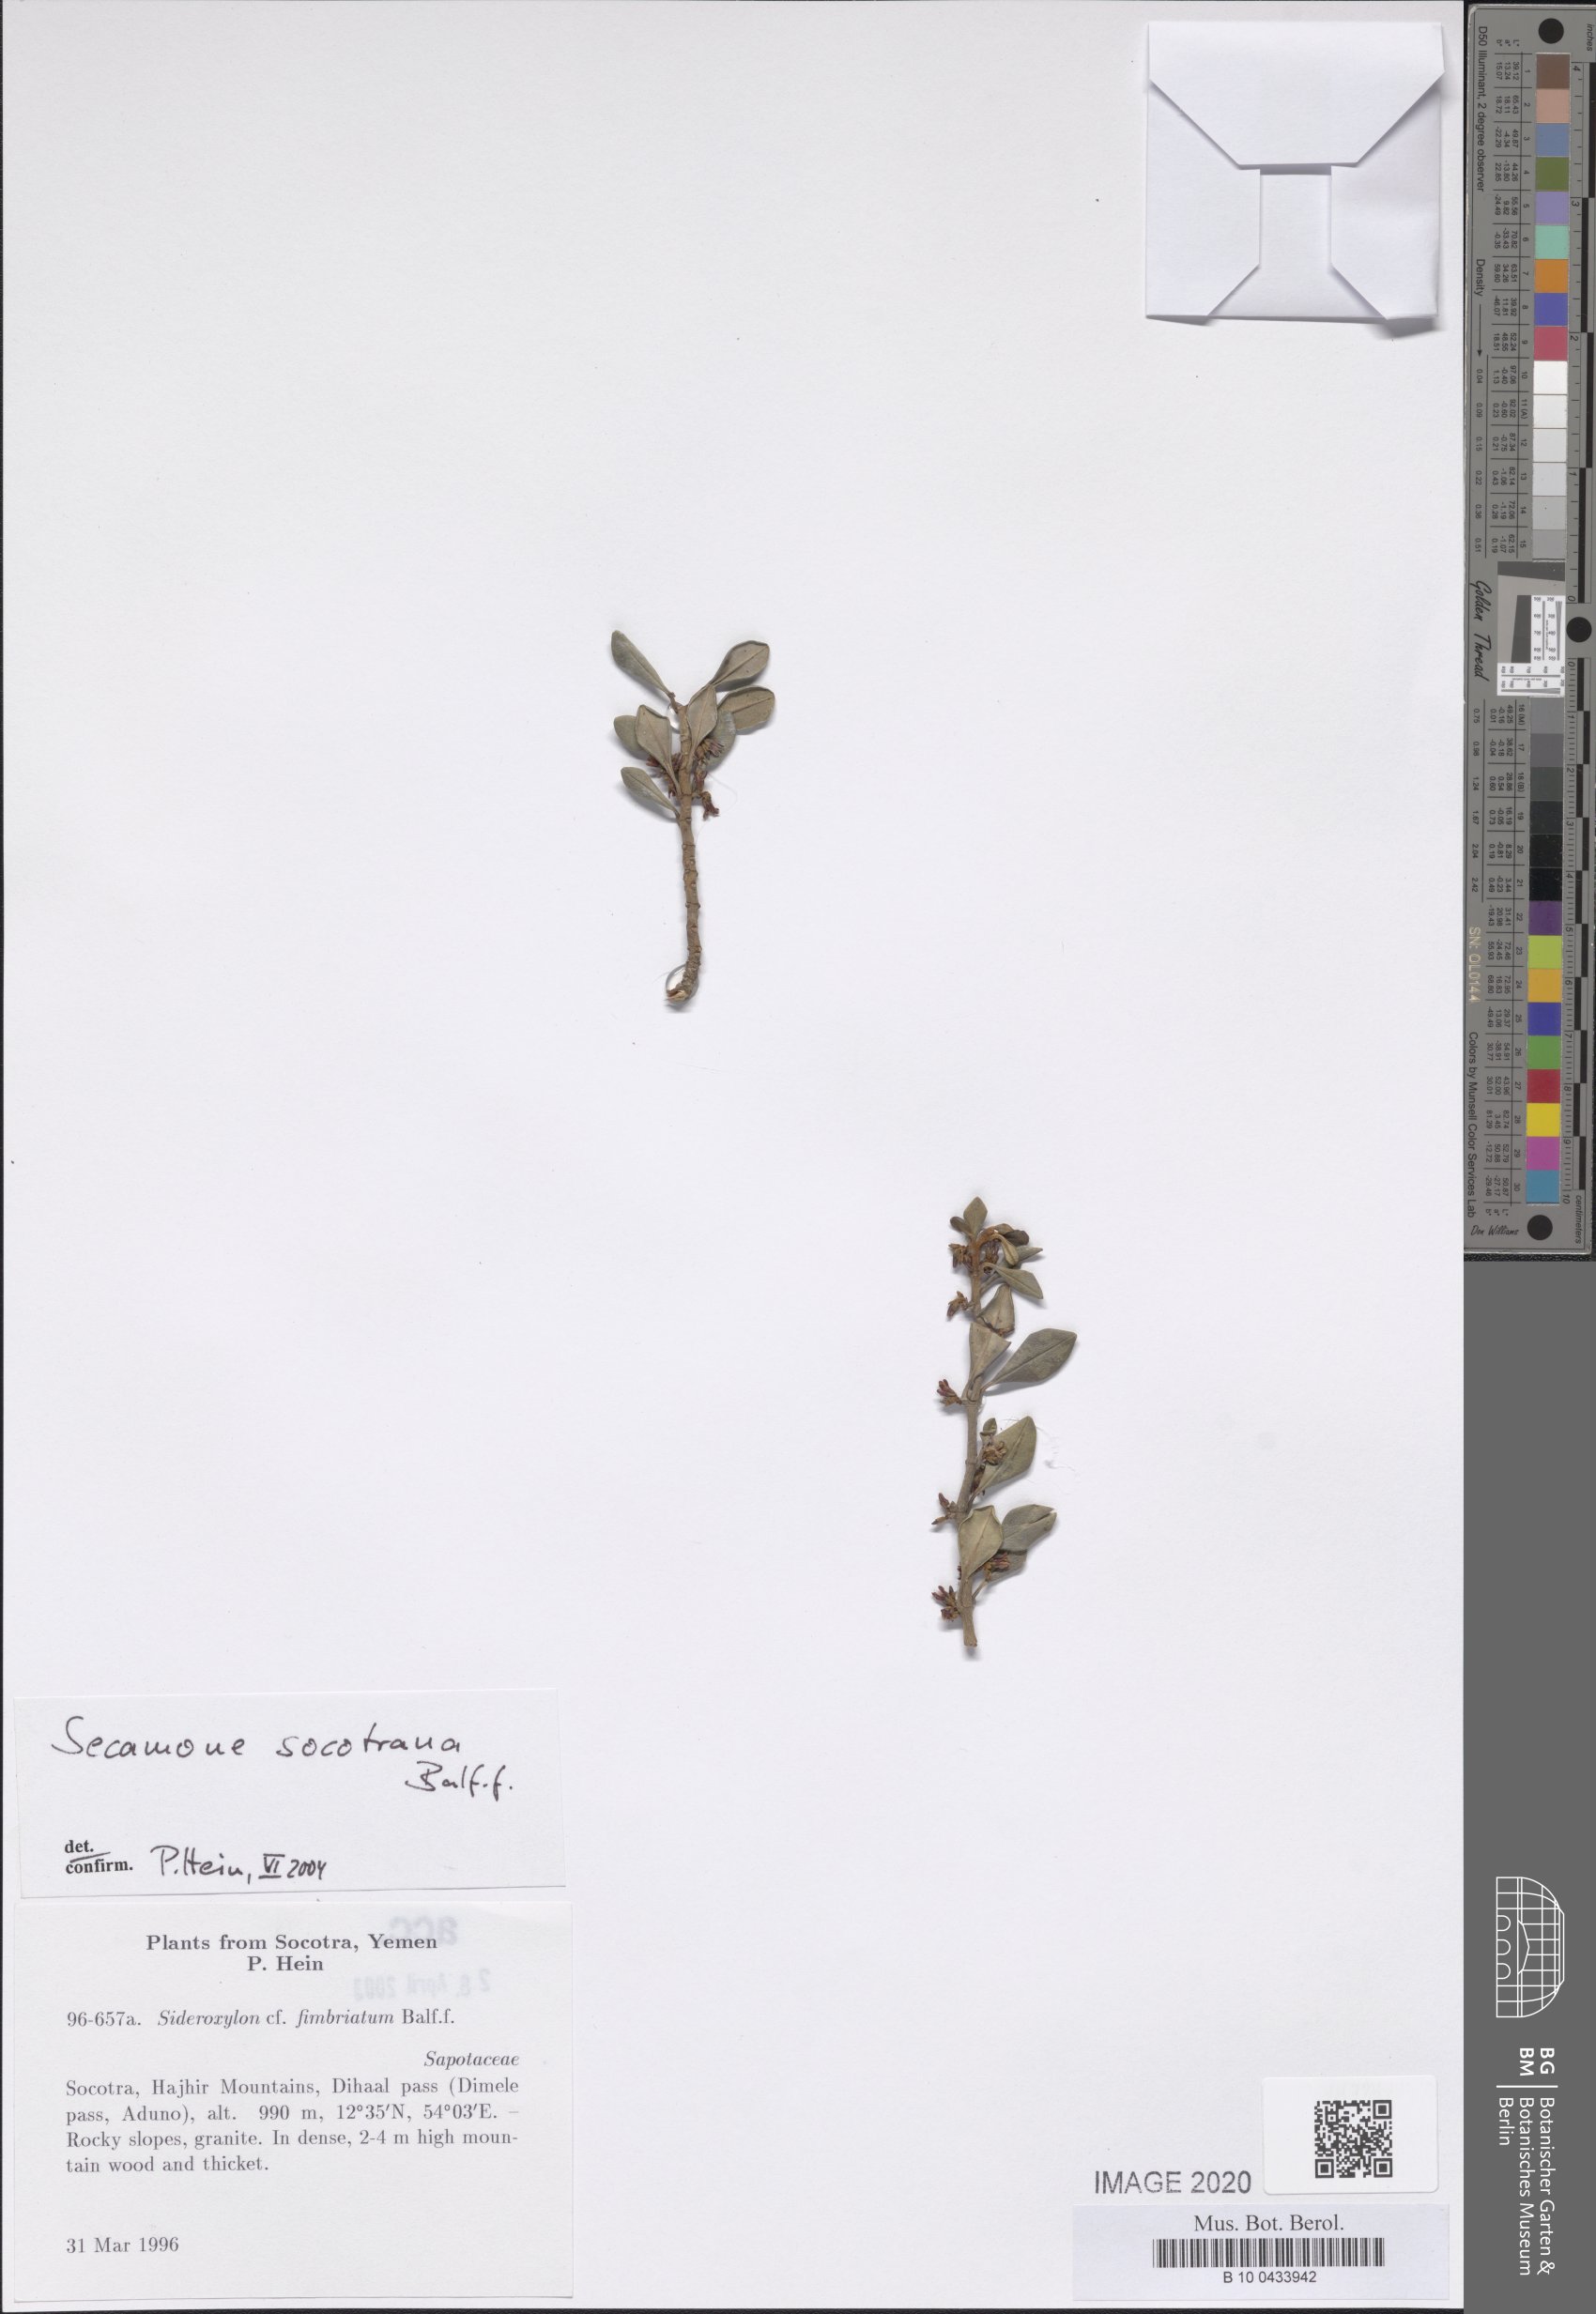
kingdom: Plantae
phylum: Tracheophyta
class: Magnoliopsida
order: Gentianales
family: Apocynaceae
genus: Secamone
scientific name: Secamone socotrana
